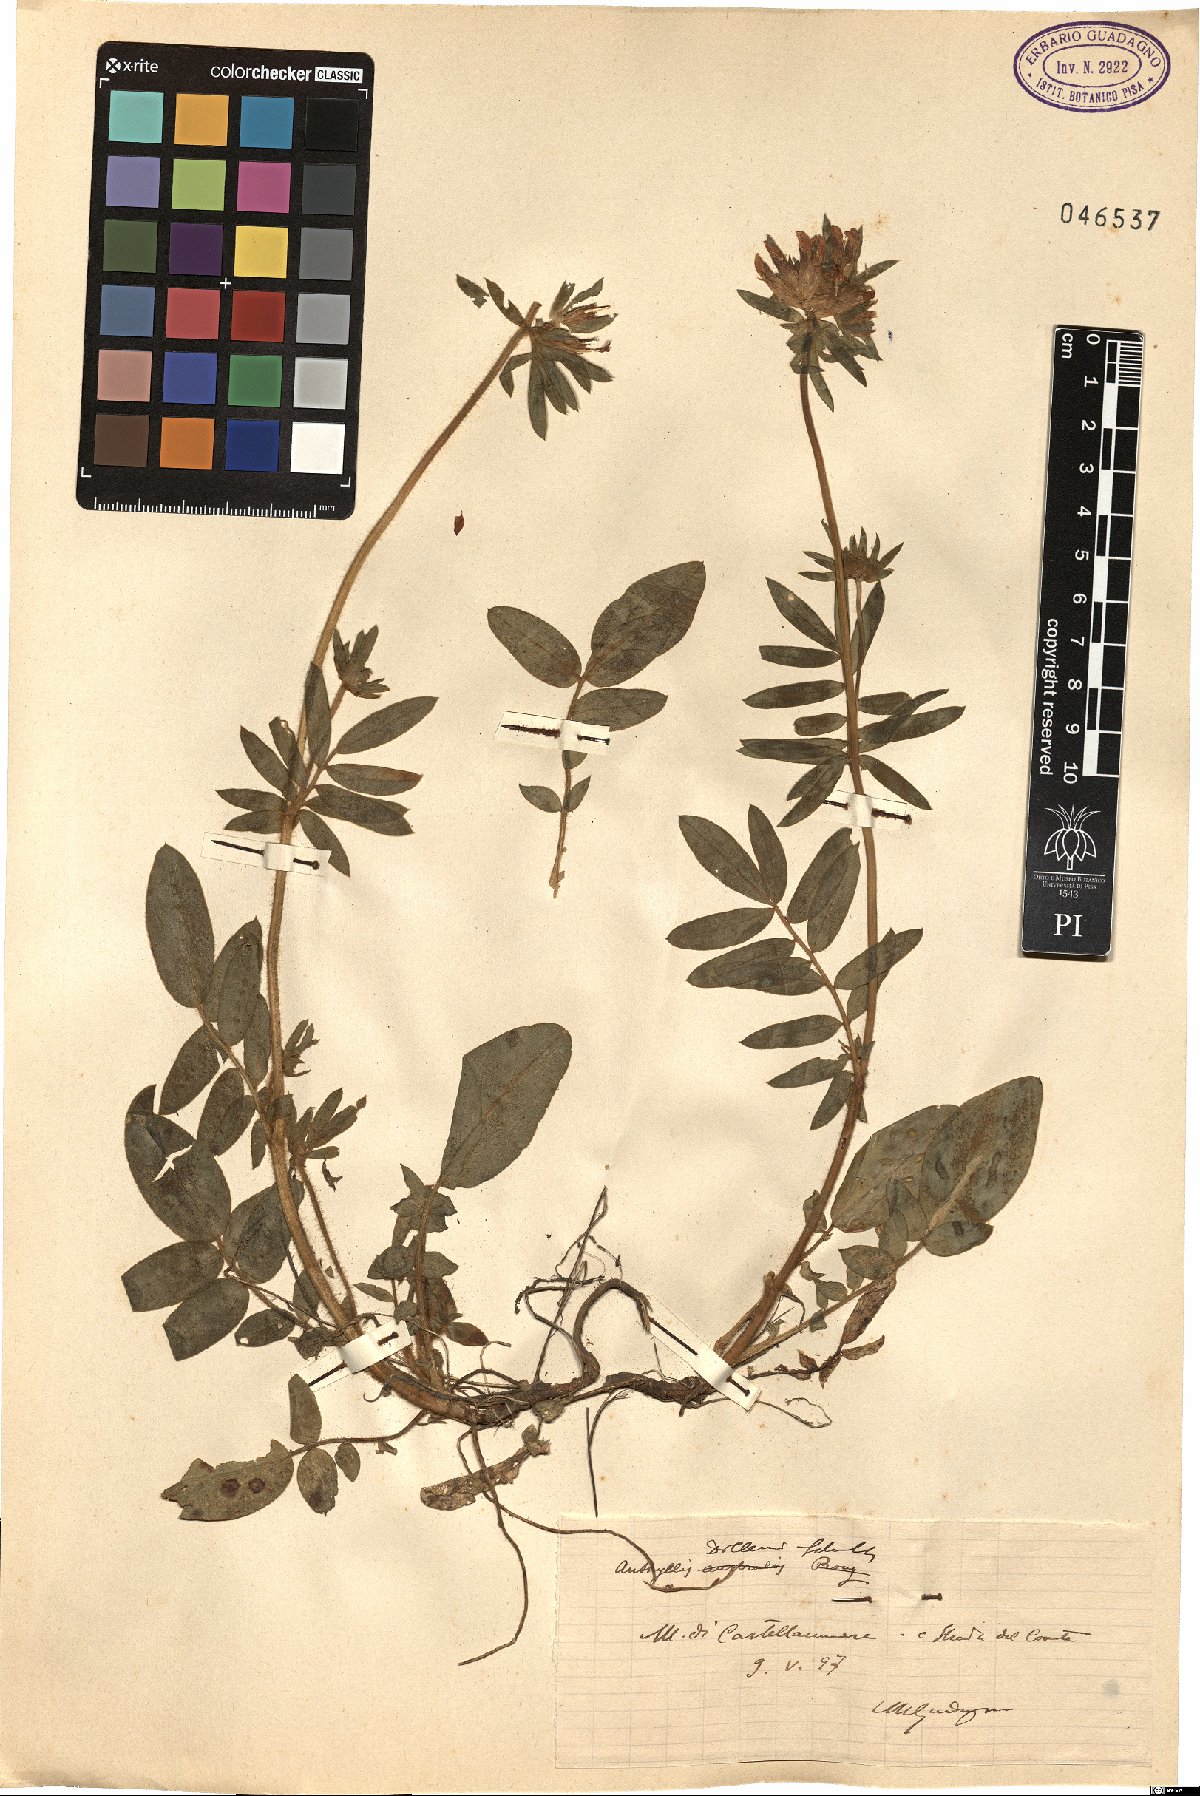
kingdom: Plantae
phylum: Tracheophyta
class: Magnoliopsida
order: Fabales
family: Fabaceae
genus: Anthyllis
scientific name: Anthyllis vulneraria
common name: Kidney vetch
